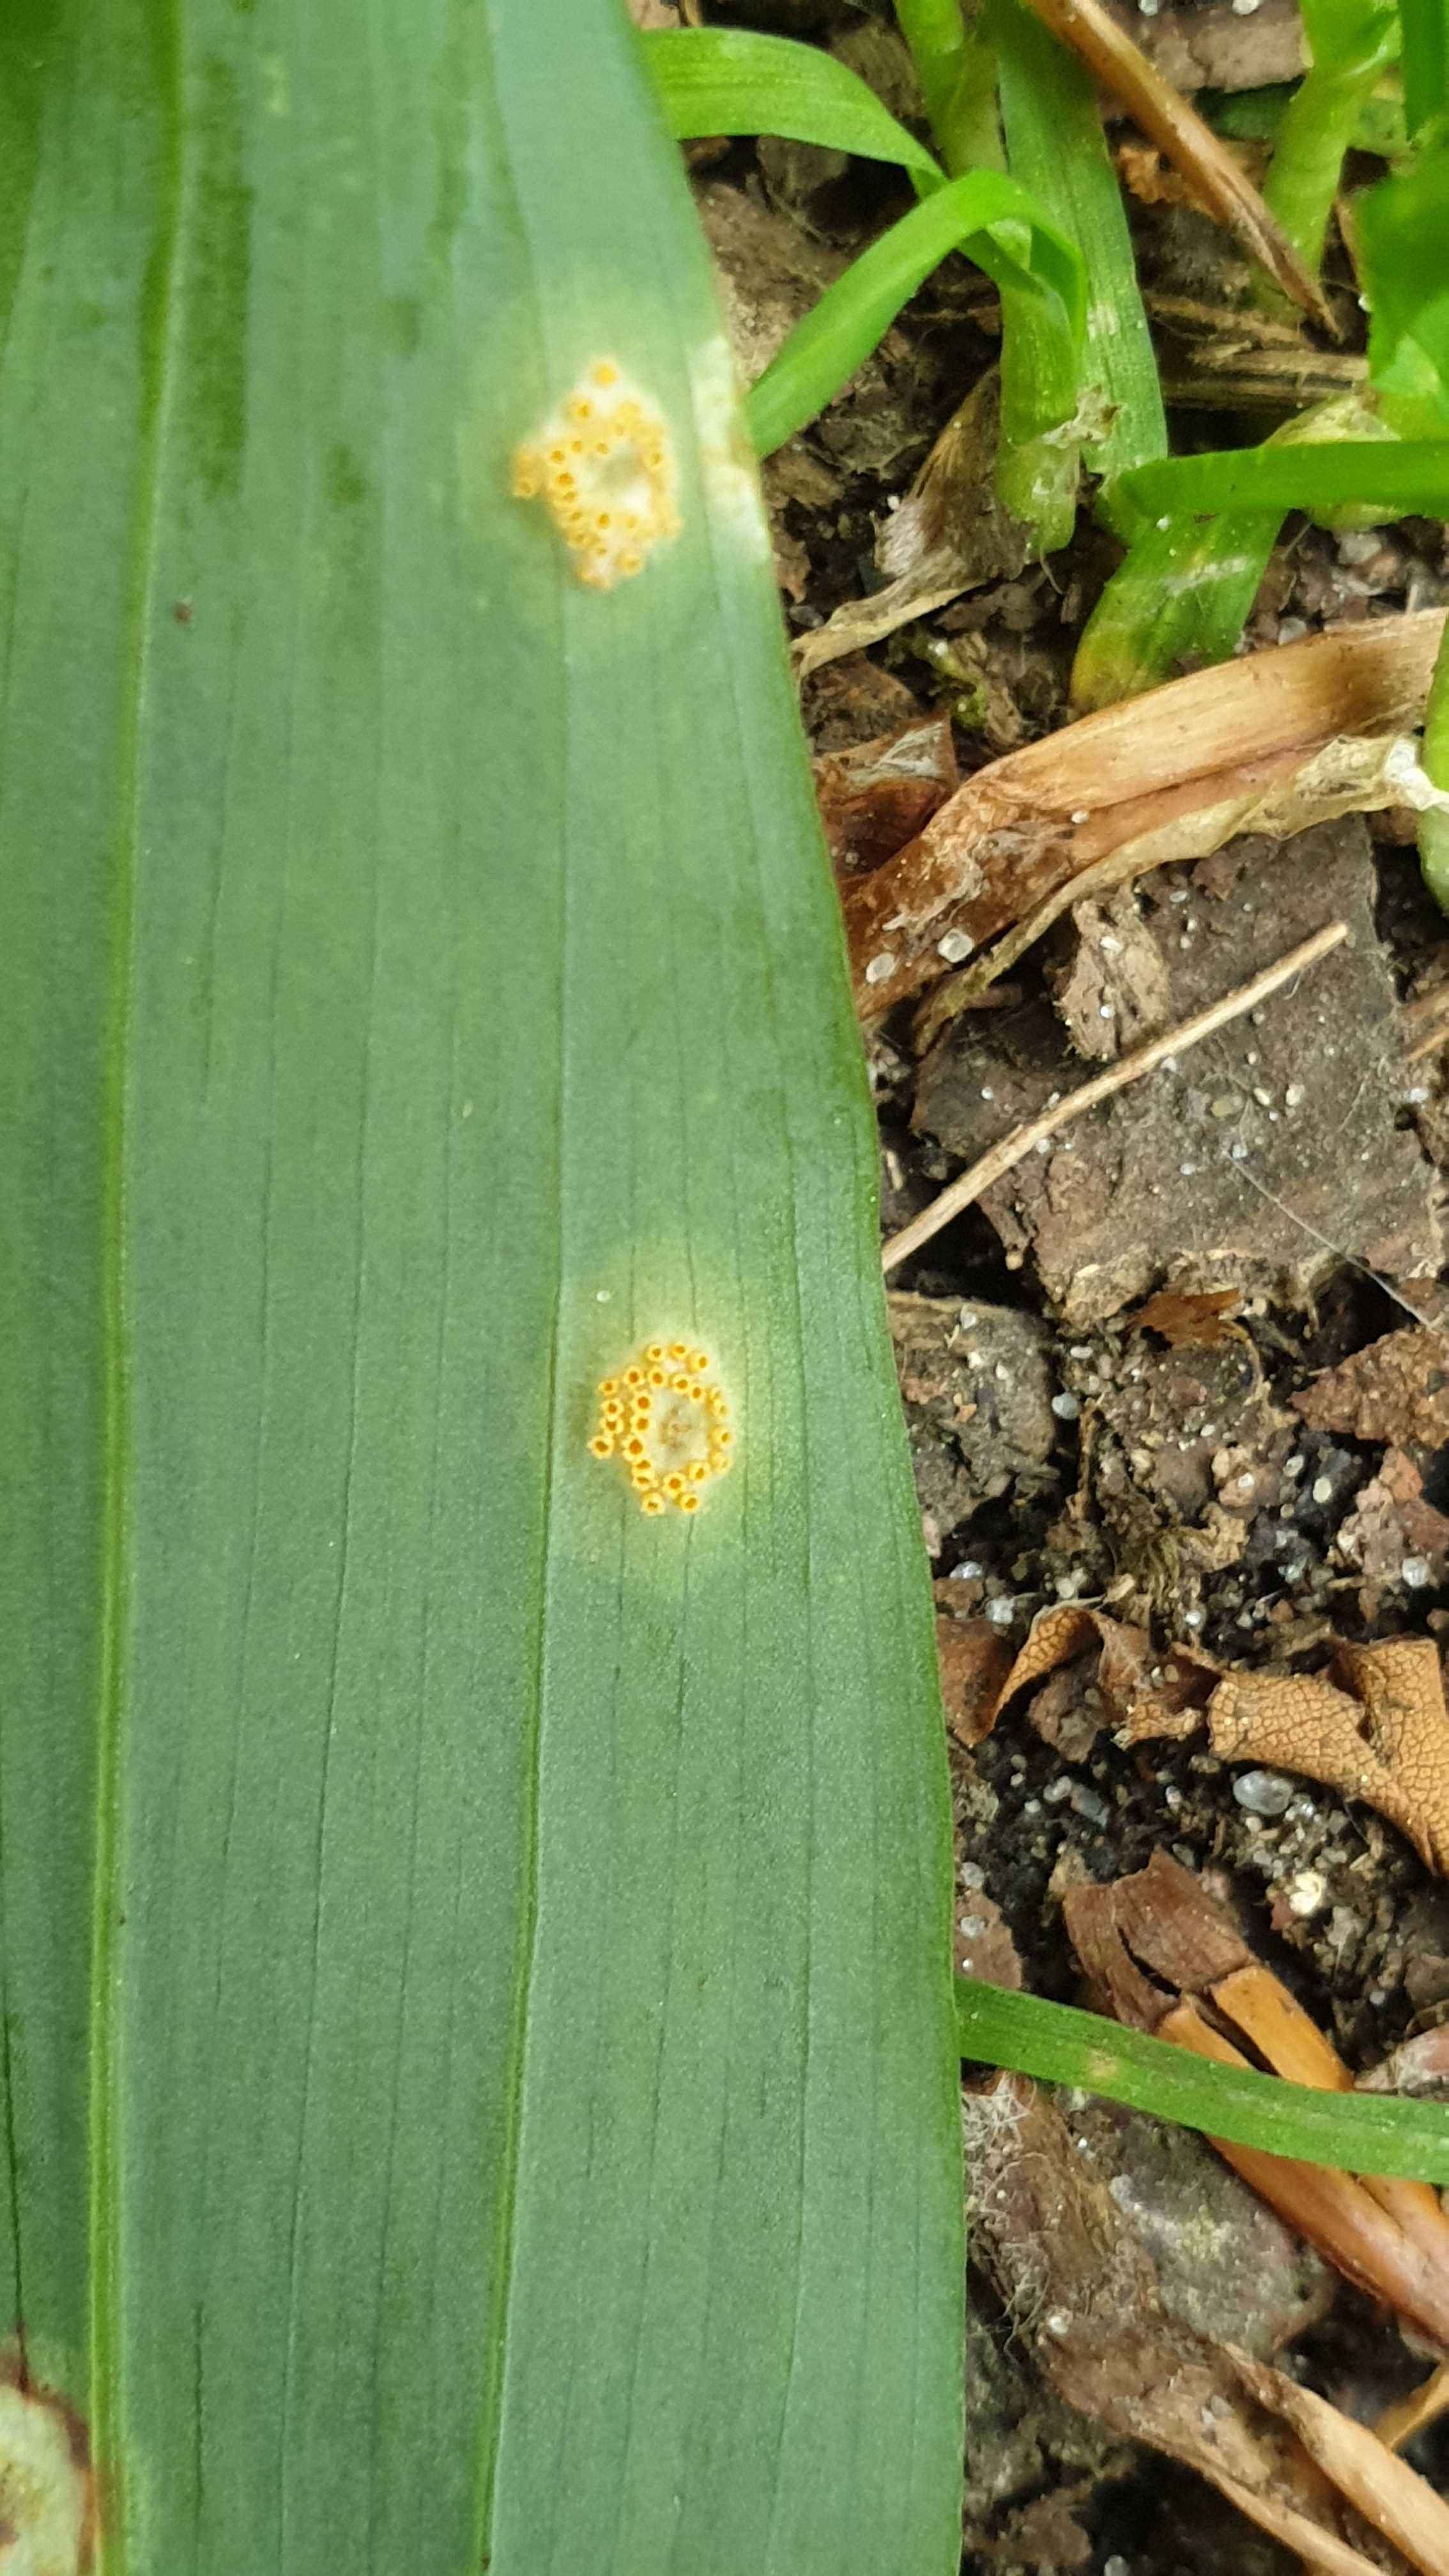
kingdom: Fungi
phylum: Basidiomycota
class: Pucciniomycetes
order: Pucciniales
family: Pucciniaceae
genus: Puccinia
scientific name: Puccinia sessilis
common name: Arum rust
